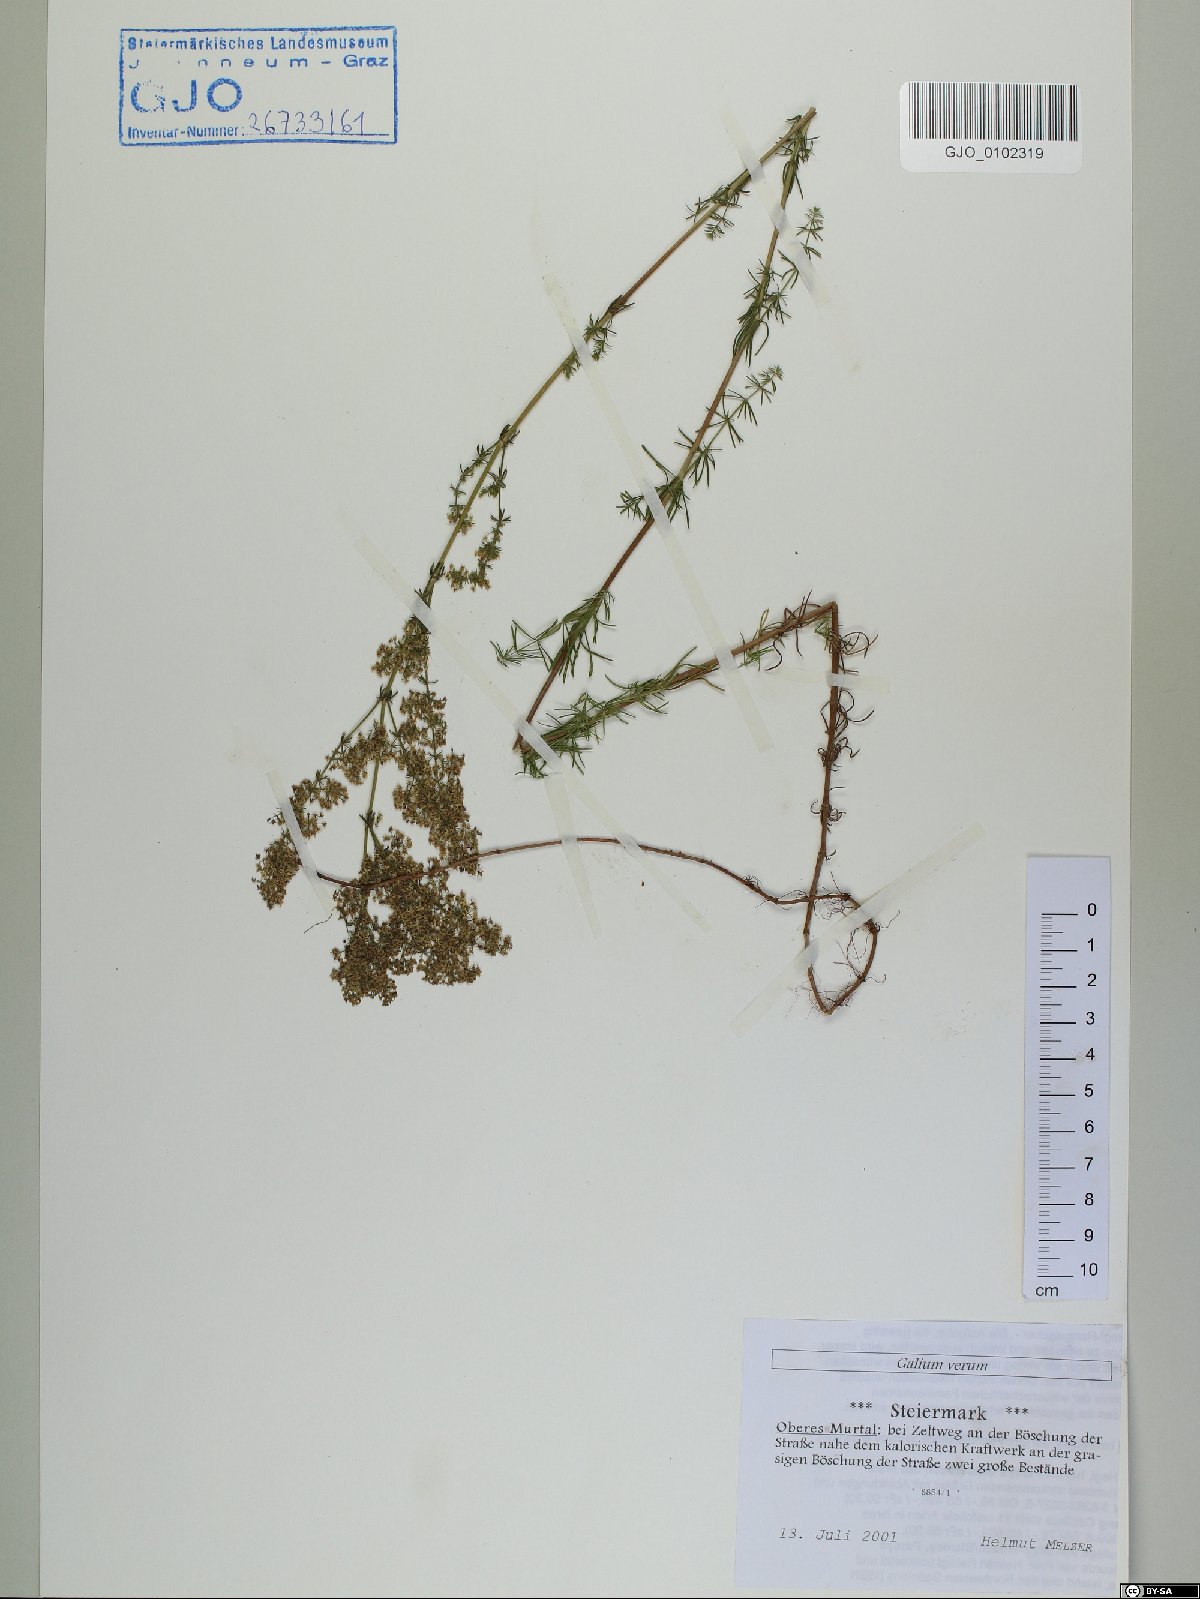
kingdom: Plantae
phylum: Tracheophyta
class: Magnoliopsida
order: Gentianales
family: Rubiaceae
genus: Galium
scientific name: Galium verum
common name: Lady's bedstraw
